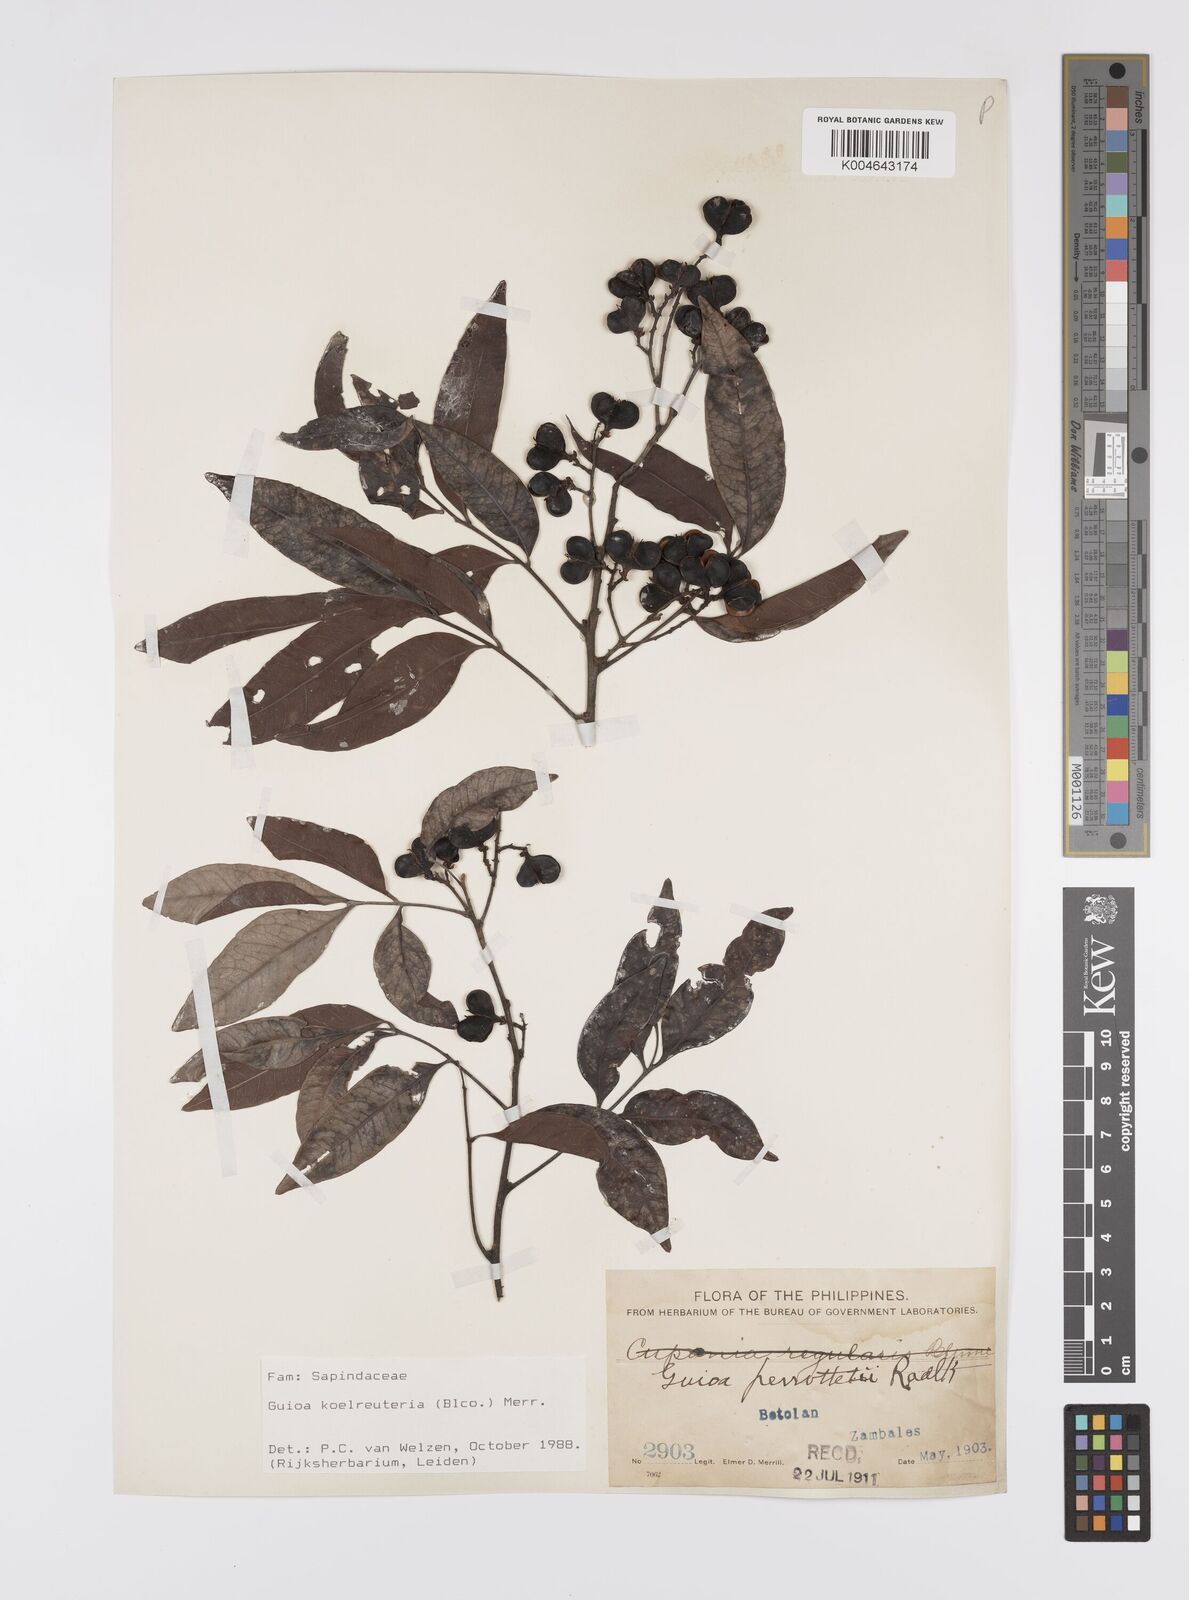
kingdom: Plantae
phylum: Tracheophyta
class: Magnoliopsida
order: Sapindales
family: Sapindaceae
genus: Guioa
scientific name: Guioa koelreuteria
